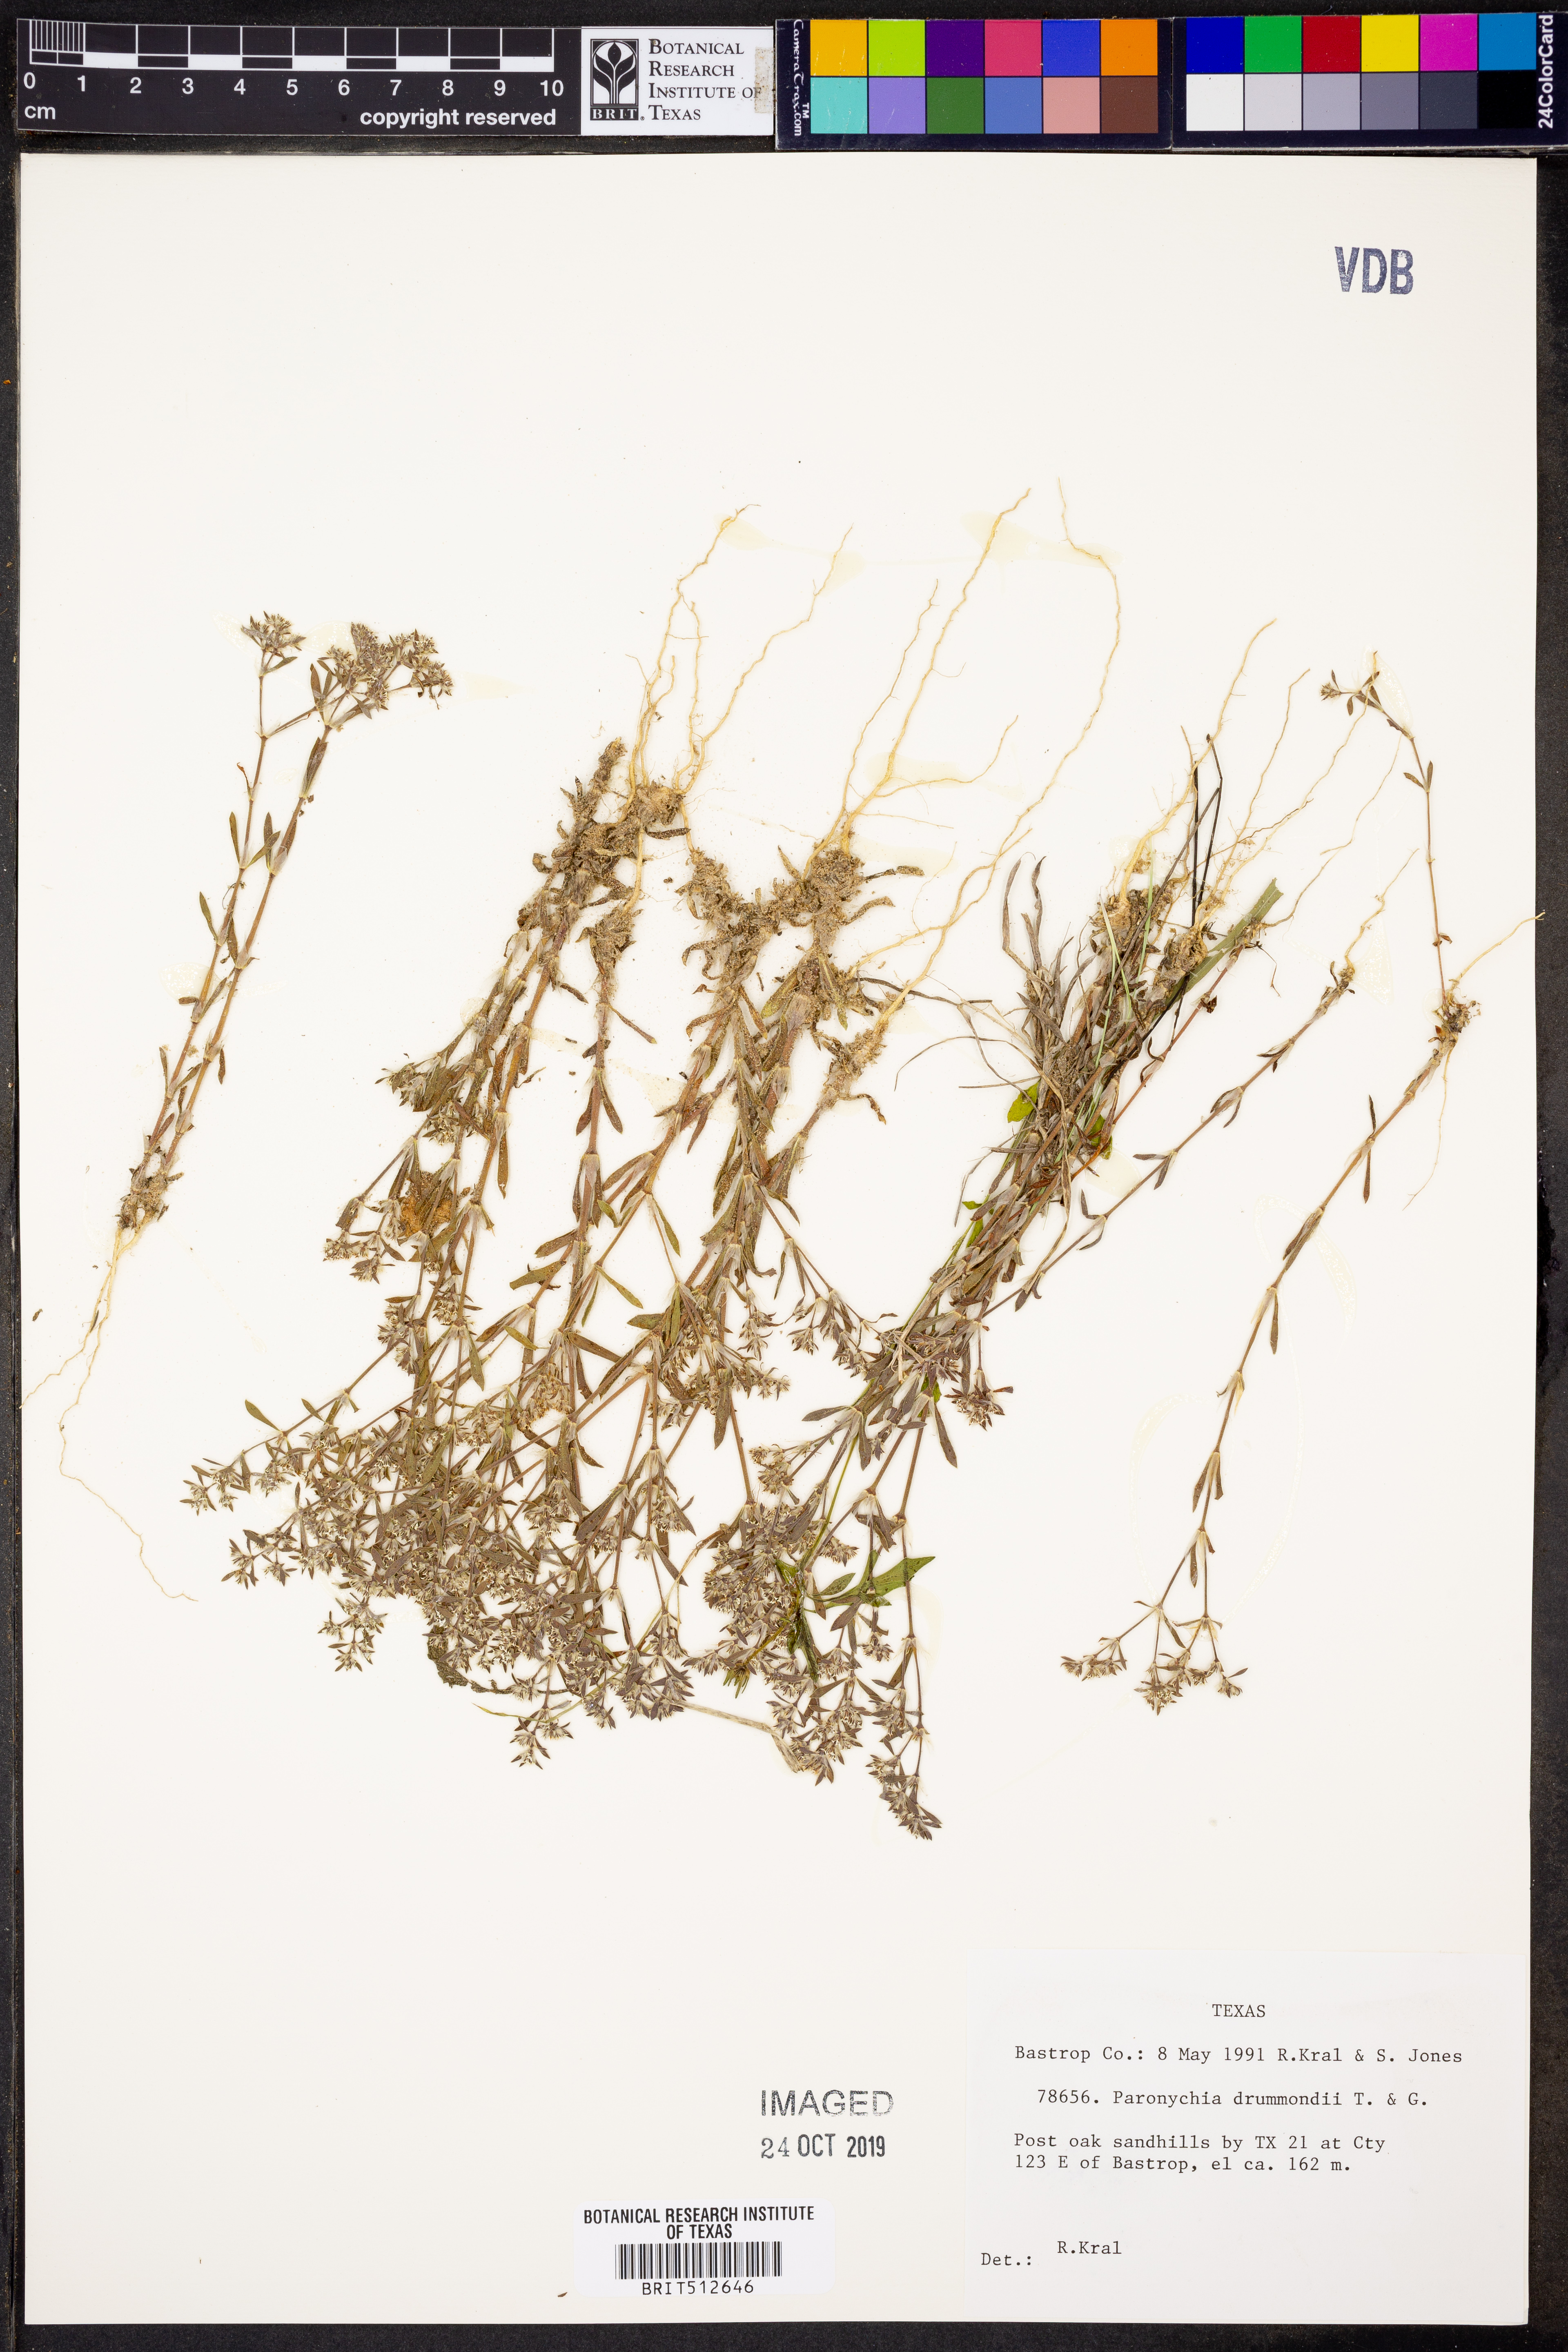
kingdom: Plantae
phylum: Tracheophyta
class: Magnoliopsida
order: Caryophyllales
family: Caryophyllaceae
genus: Paronychia
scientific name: Paronychia drummondii
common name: Drummond's nailwort
